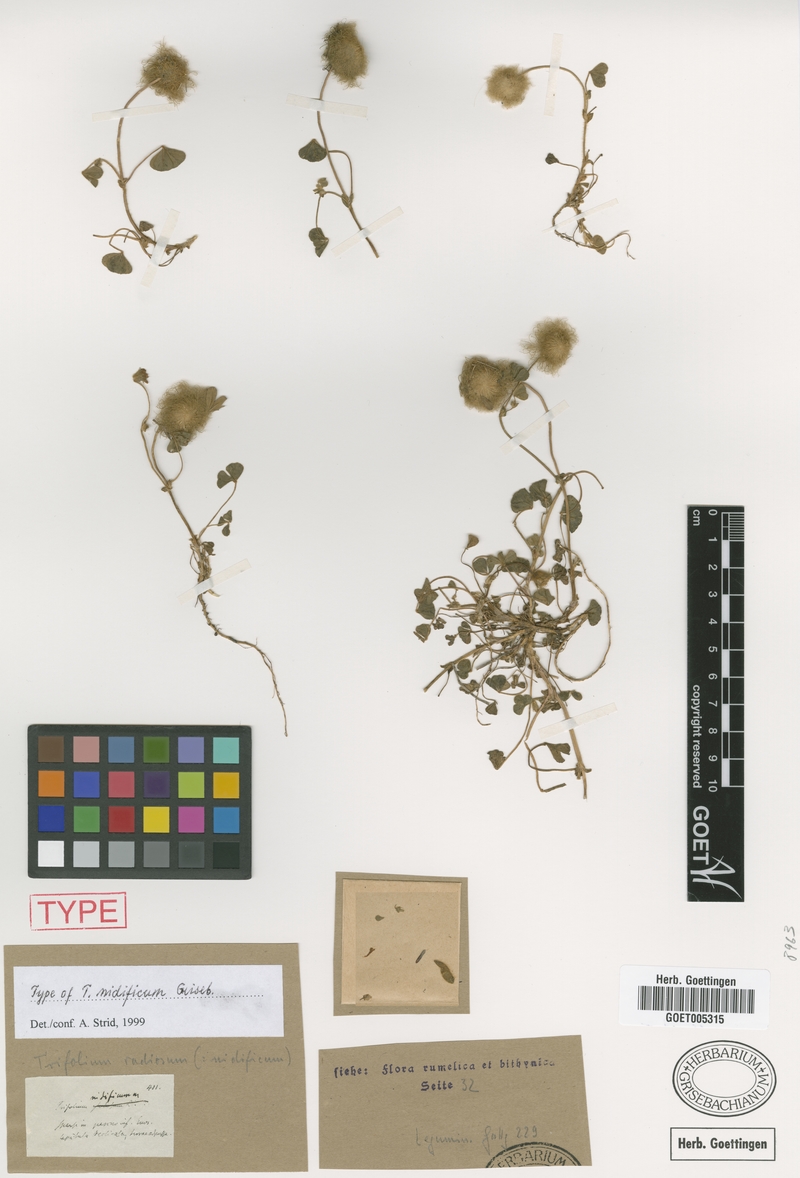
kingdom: Plantae
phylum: Tracheophyta
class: Magnoliopsida
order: Fabales
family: Fabaceae
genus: Trifolium
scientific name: Trifolium globosum
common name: Round-head clover
